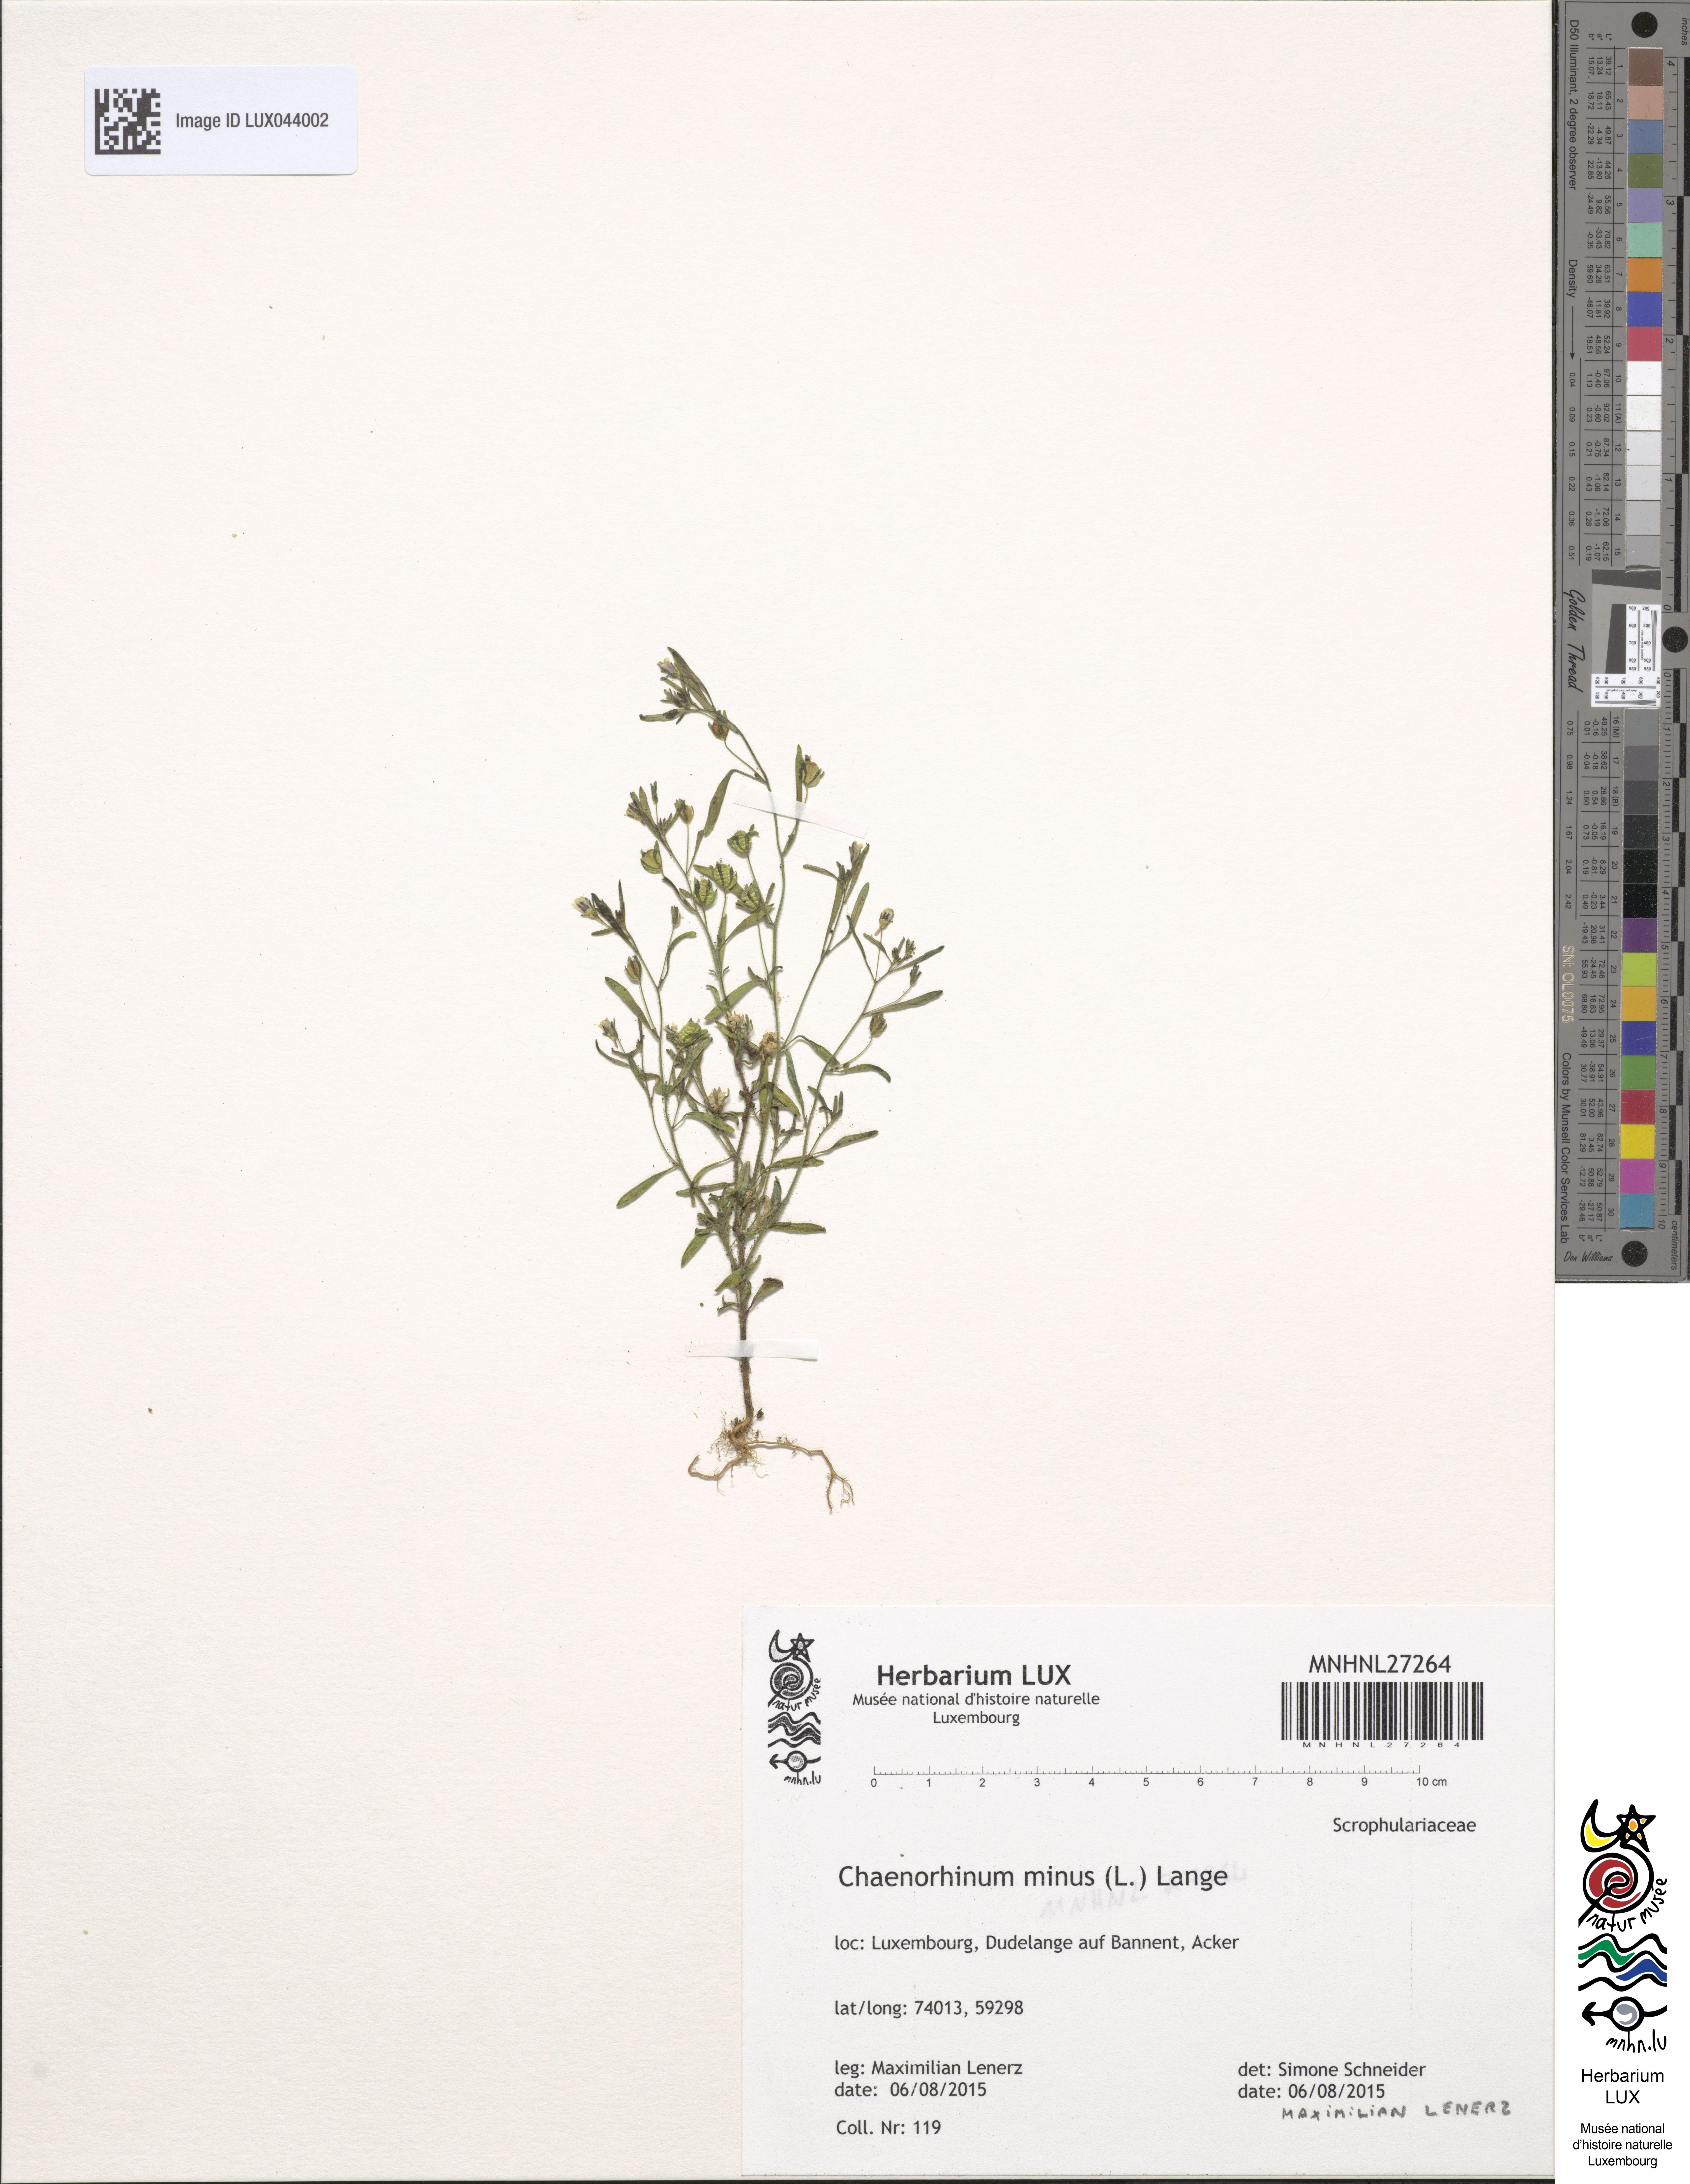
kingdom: Plantae
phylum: Tracheophyta
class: Magnoliopsida
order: Lamiales
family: Plantaginaceae
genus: Chaenorhinum
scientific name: Chaenorhinum minus
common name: Dwarf snapdragon
